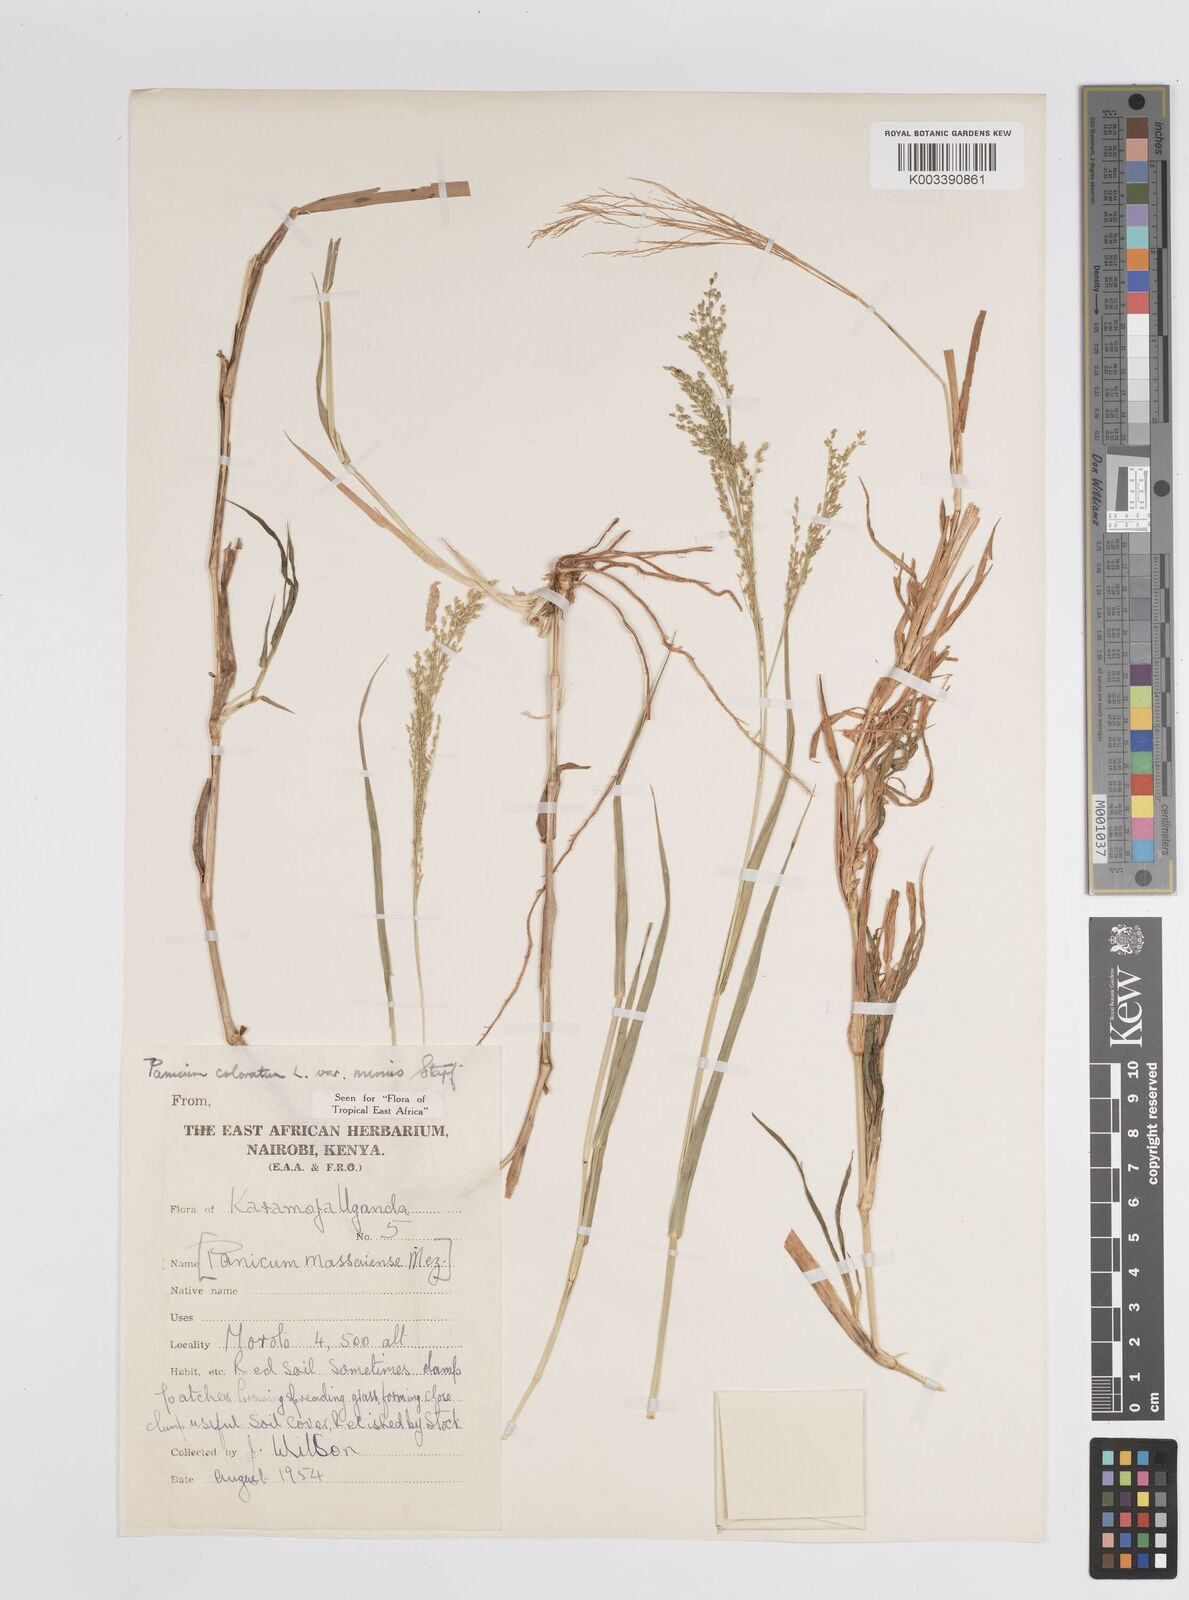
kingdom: Plantae
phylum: Tracheophyta
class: Liliopsida
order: Poales
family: Poaceae
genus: Panicum
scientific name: Panicum coloratum
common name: Kleingrass
